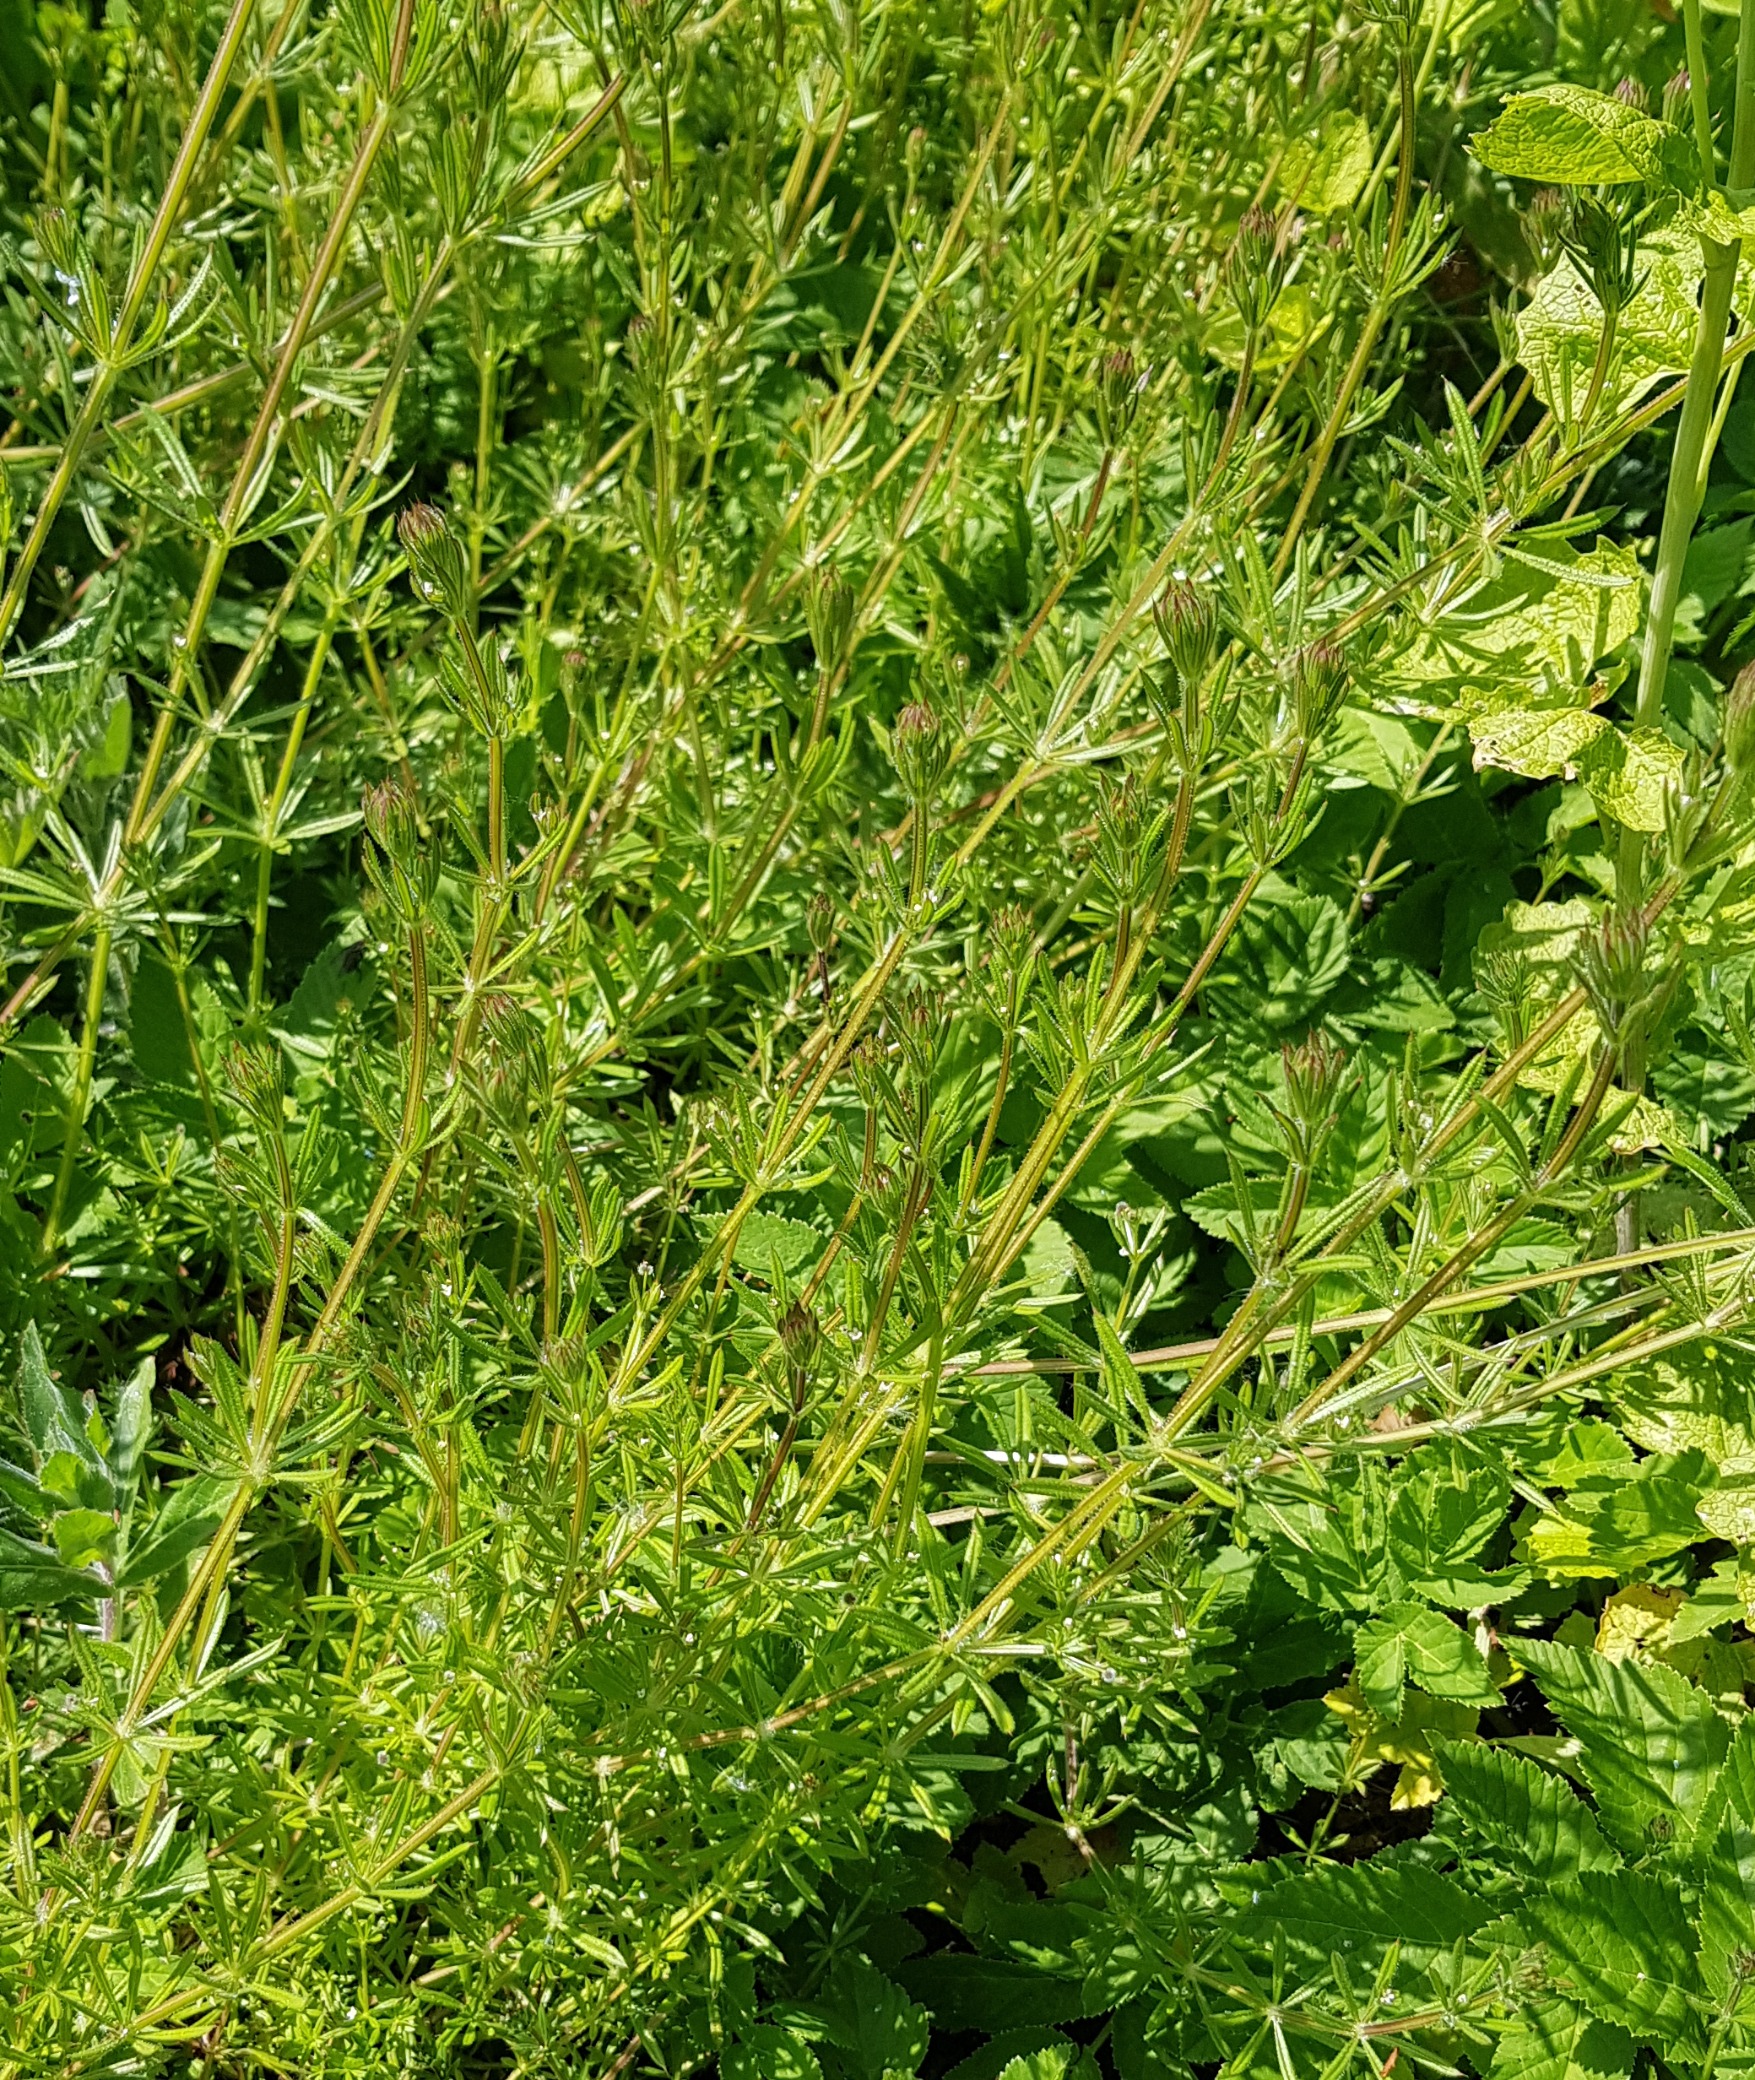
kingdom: Plantae
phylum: Tracheophyta
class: Magnoliopsida
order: Gentianales
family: Rubiaceae
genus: Galium
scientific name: Galium aparine
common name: Burre-snerre
